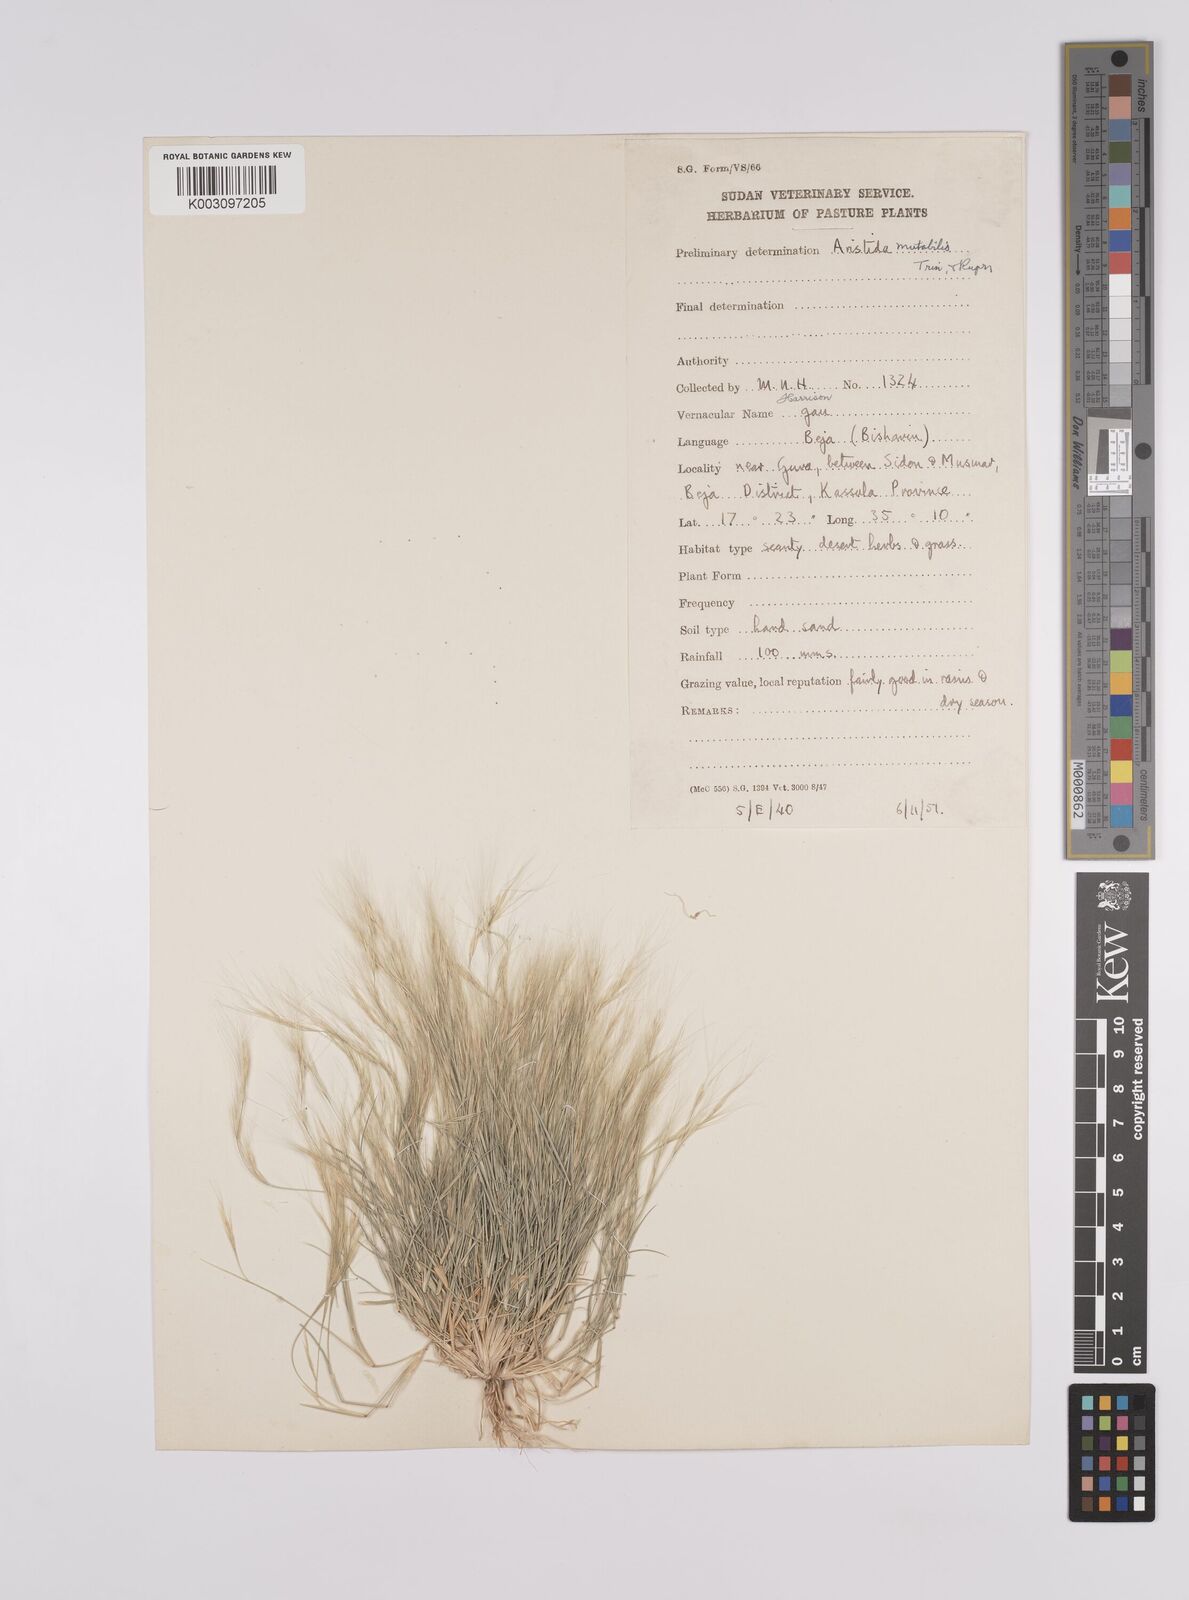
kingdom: Plantae
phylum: Tracheophyta
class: Liliopsida
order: Poales
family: Poaceae
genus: Aristida
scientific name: Aristida mutabilis
